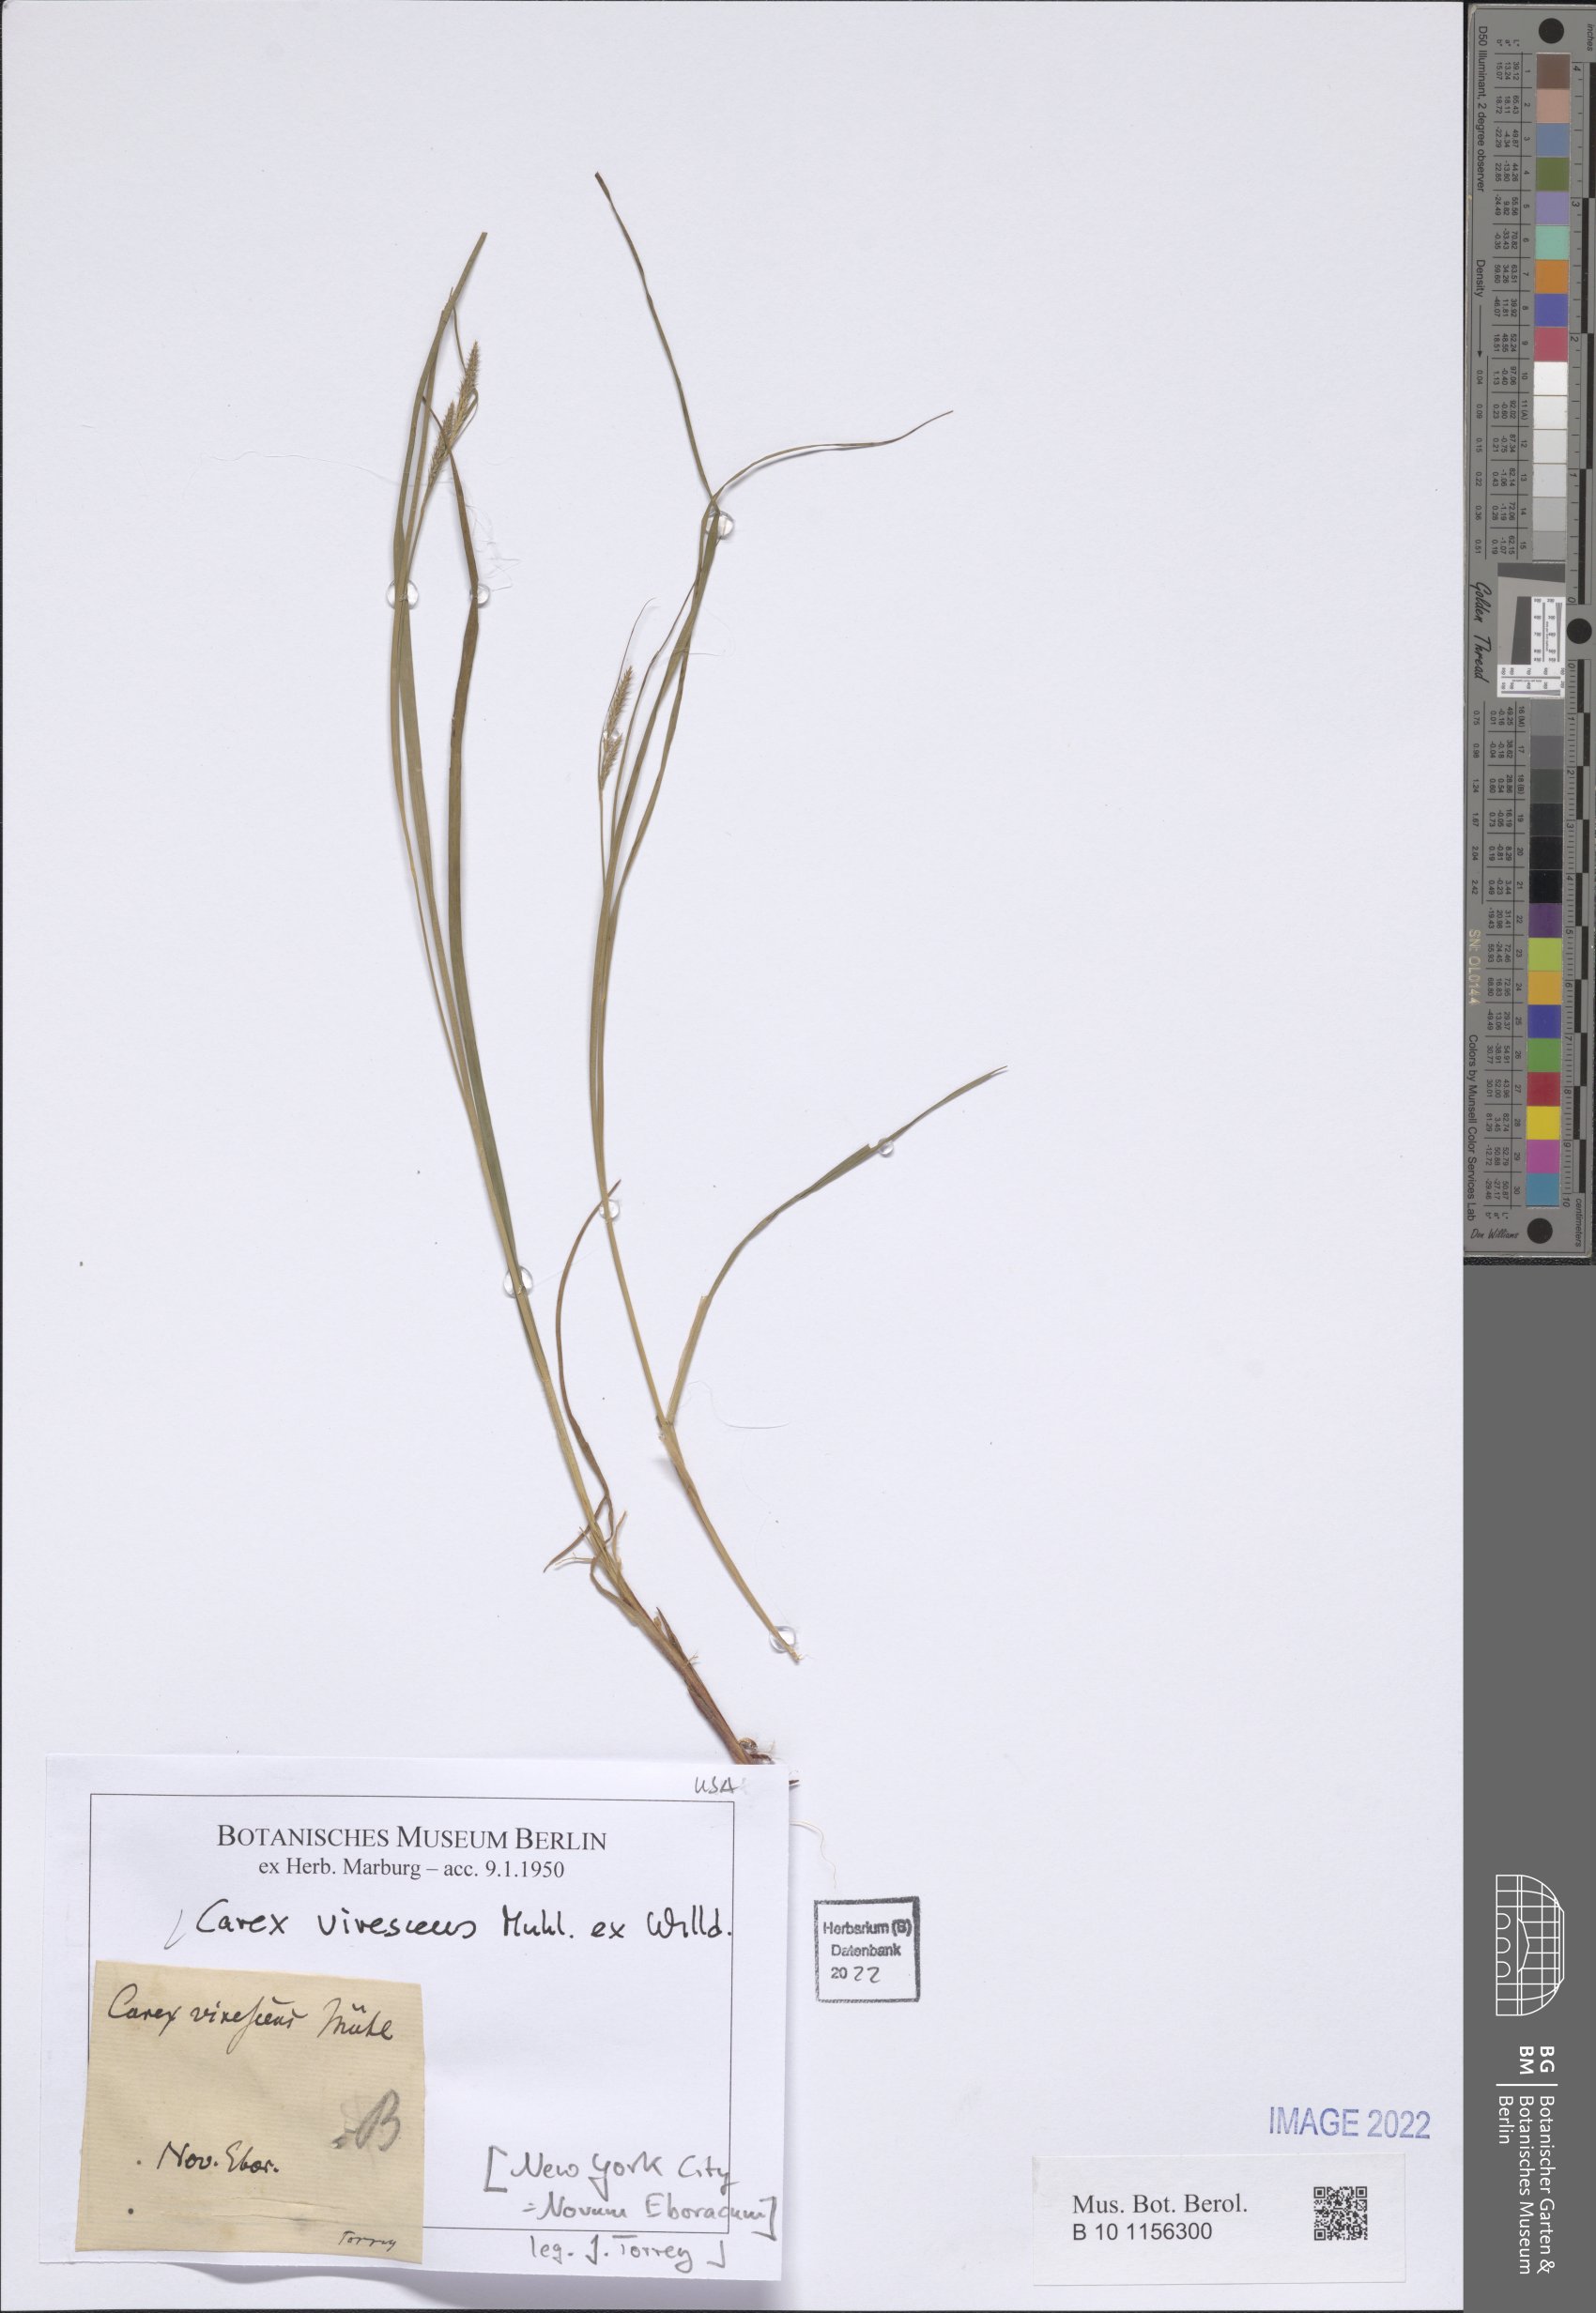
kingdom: Plantae
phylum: Tracheophyta
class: Liliopsida
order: Poales
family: Cyperaceae
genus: Carex
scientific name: Carex virescens
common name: Ribbed sedge
